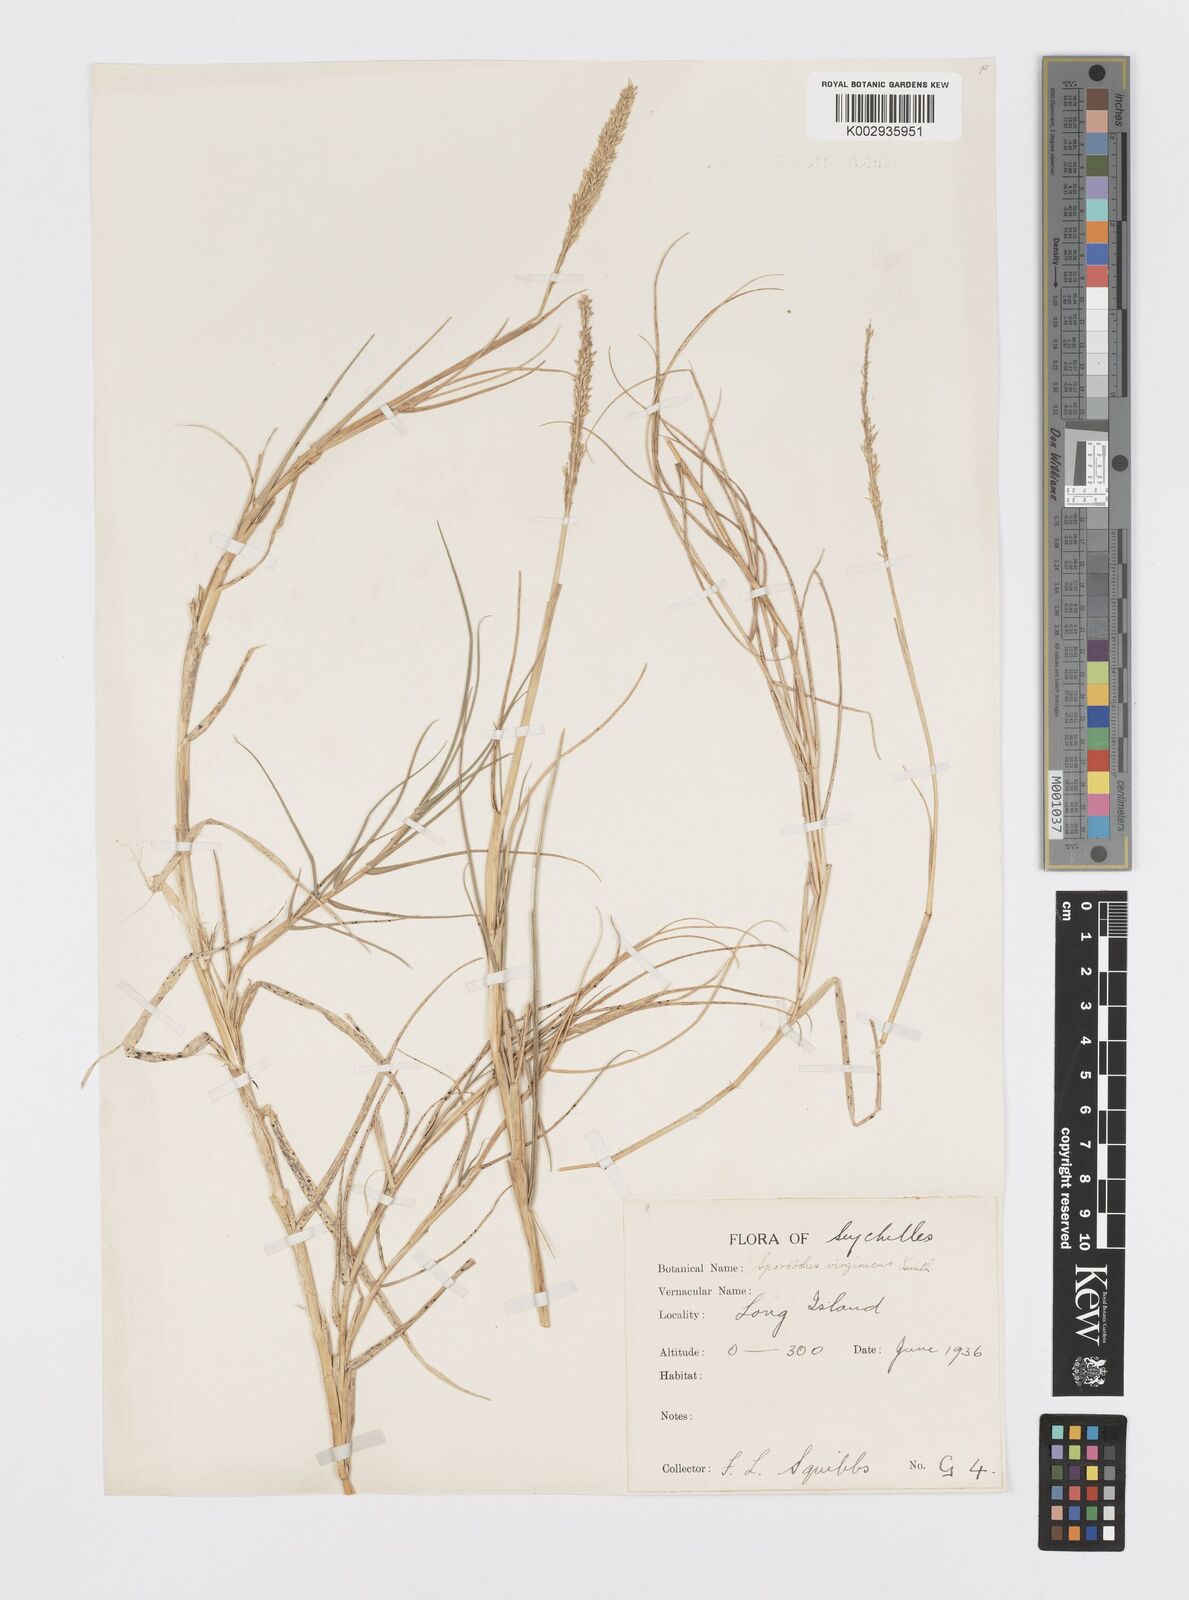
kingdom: Plantae
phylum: Tracheophyta
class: Liliopsida
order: Poales
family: Poaceae
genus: Sporobolus
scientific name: Sporobolus virginicus
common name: Beach dropseed
